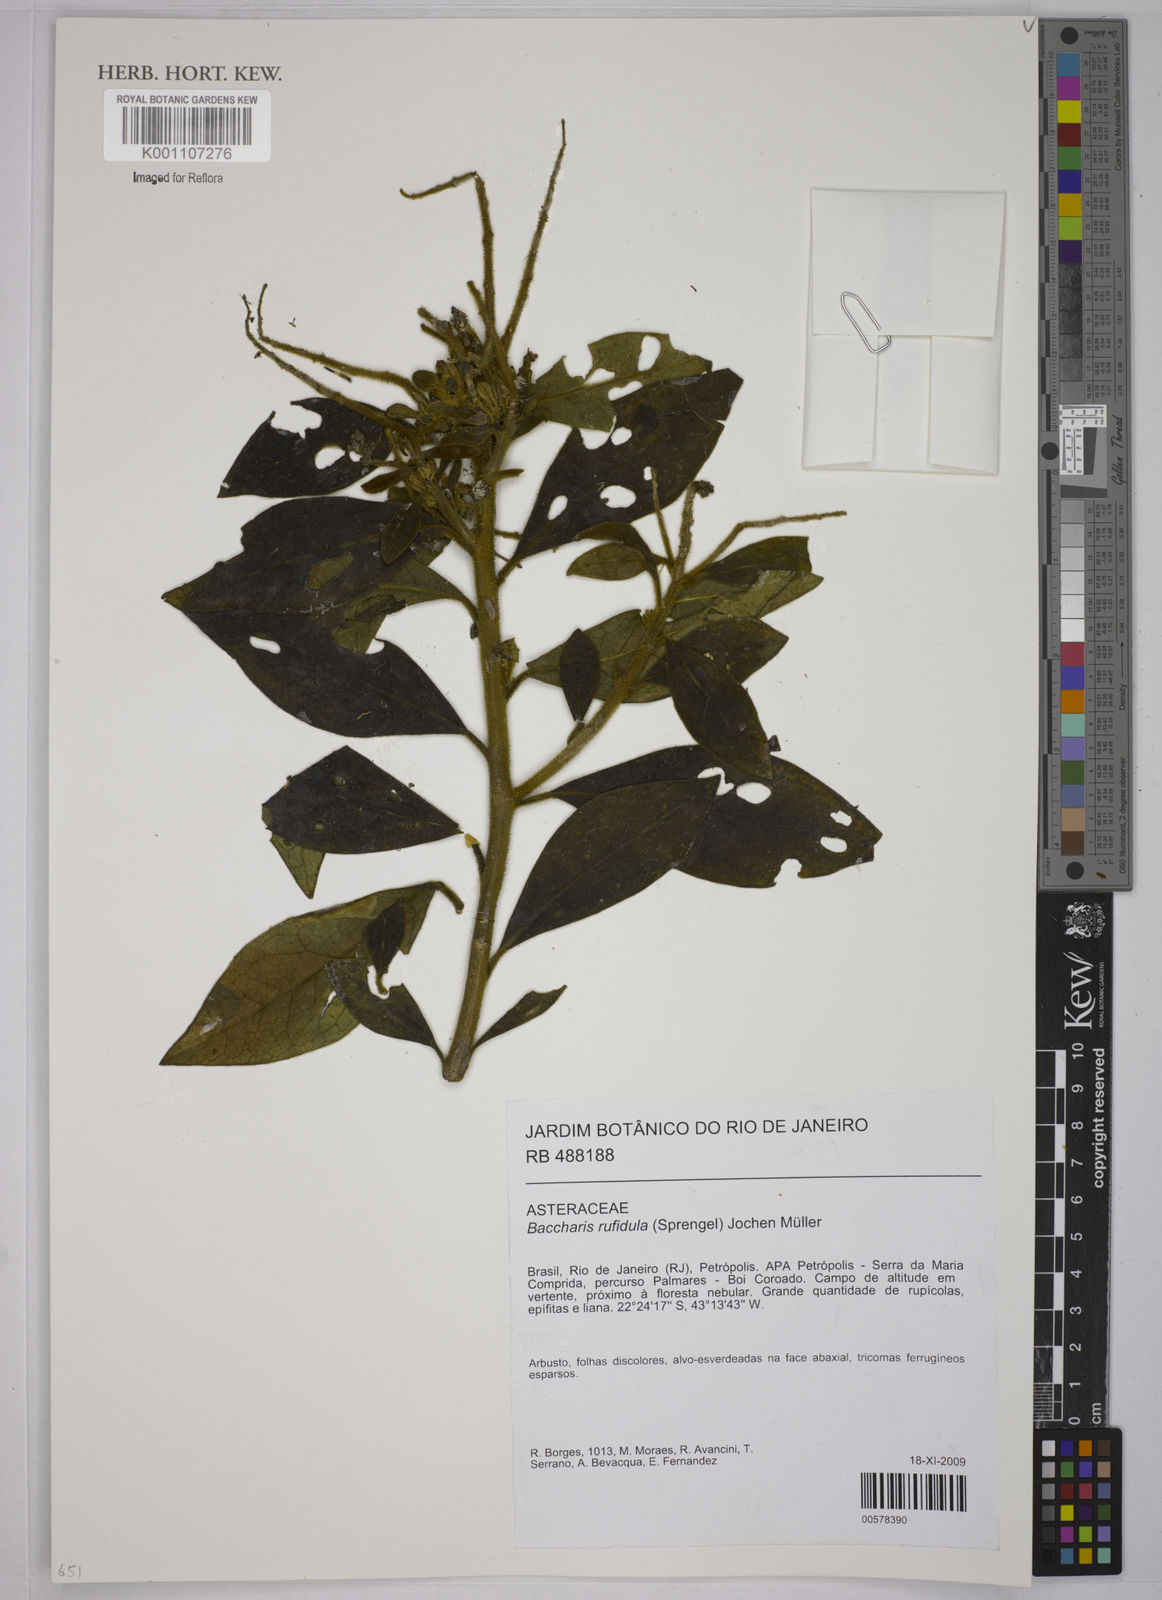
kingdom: Plantae
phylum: Tracheophyta
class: Magnoliopsida
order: Asterales
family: Asteraceae
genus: Baccharis
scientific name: Baccharis
